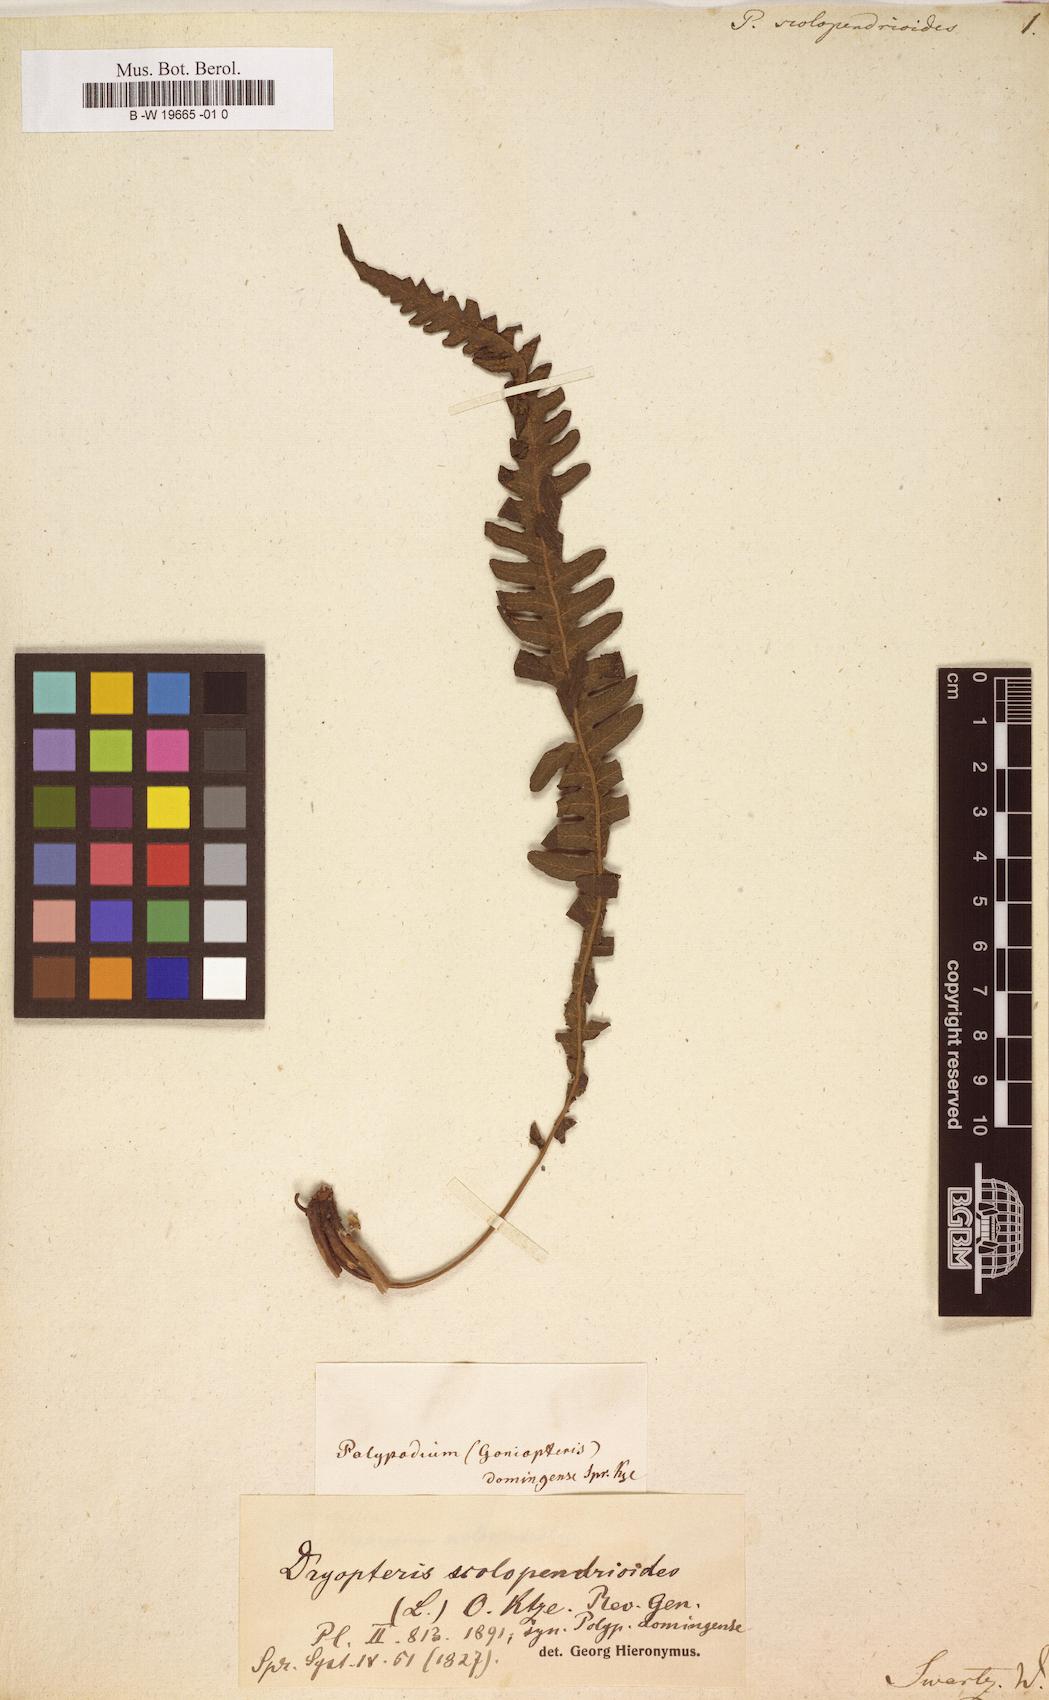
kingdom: Plantae
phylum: Tracheophyta
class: Polypodiopsida
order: Polypodiales
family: Polypodiaceae
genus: Enterosora
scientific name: Enterosora trifurcata
